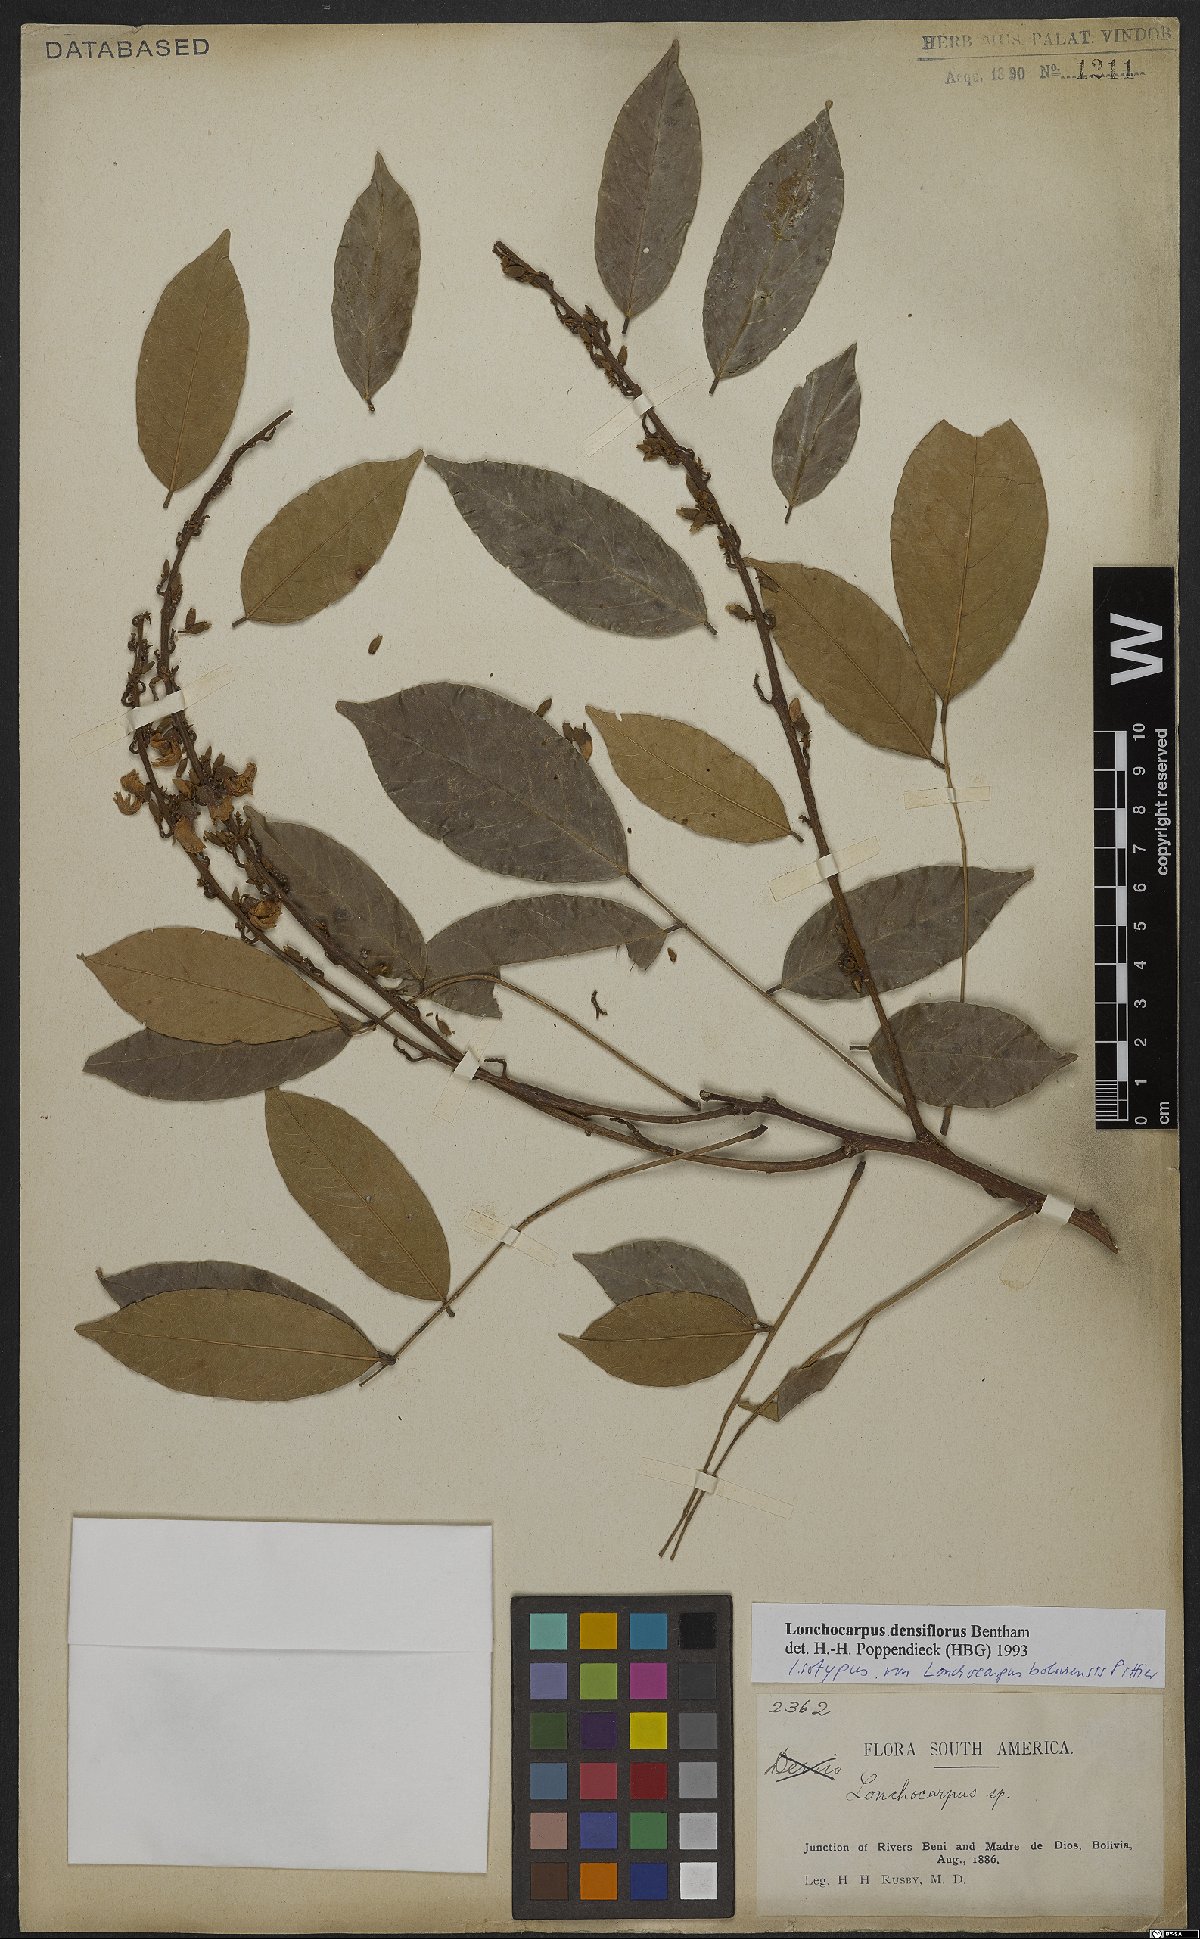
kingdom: Plantae
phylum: Tracheophyta
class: Magnoliopsida
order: Fabales
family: Fabaceae
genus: Deguelia
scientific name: Deguelia densiflora
